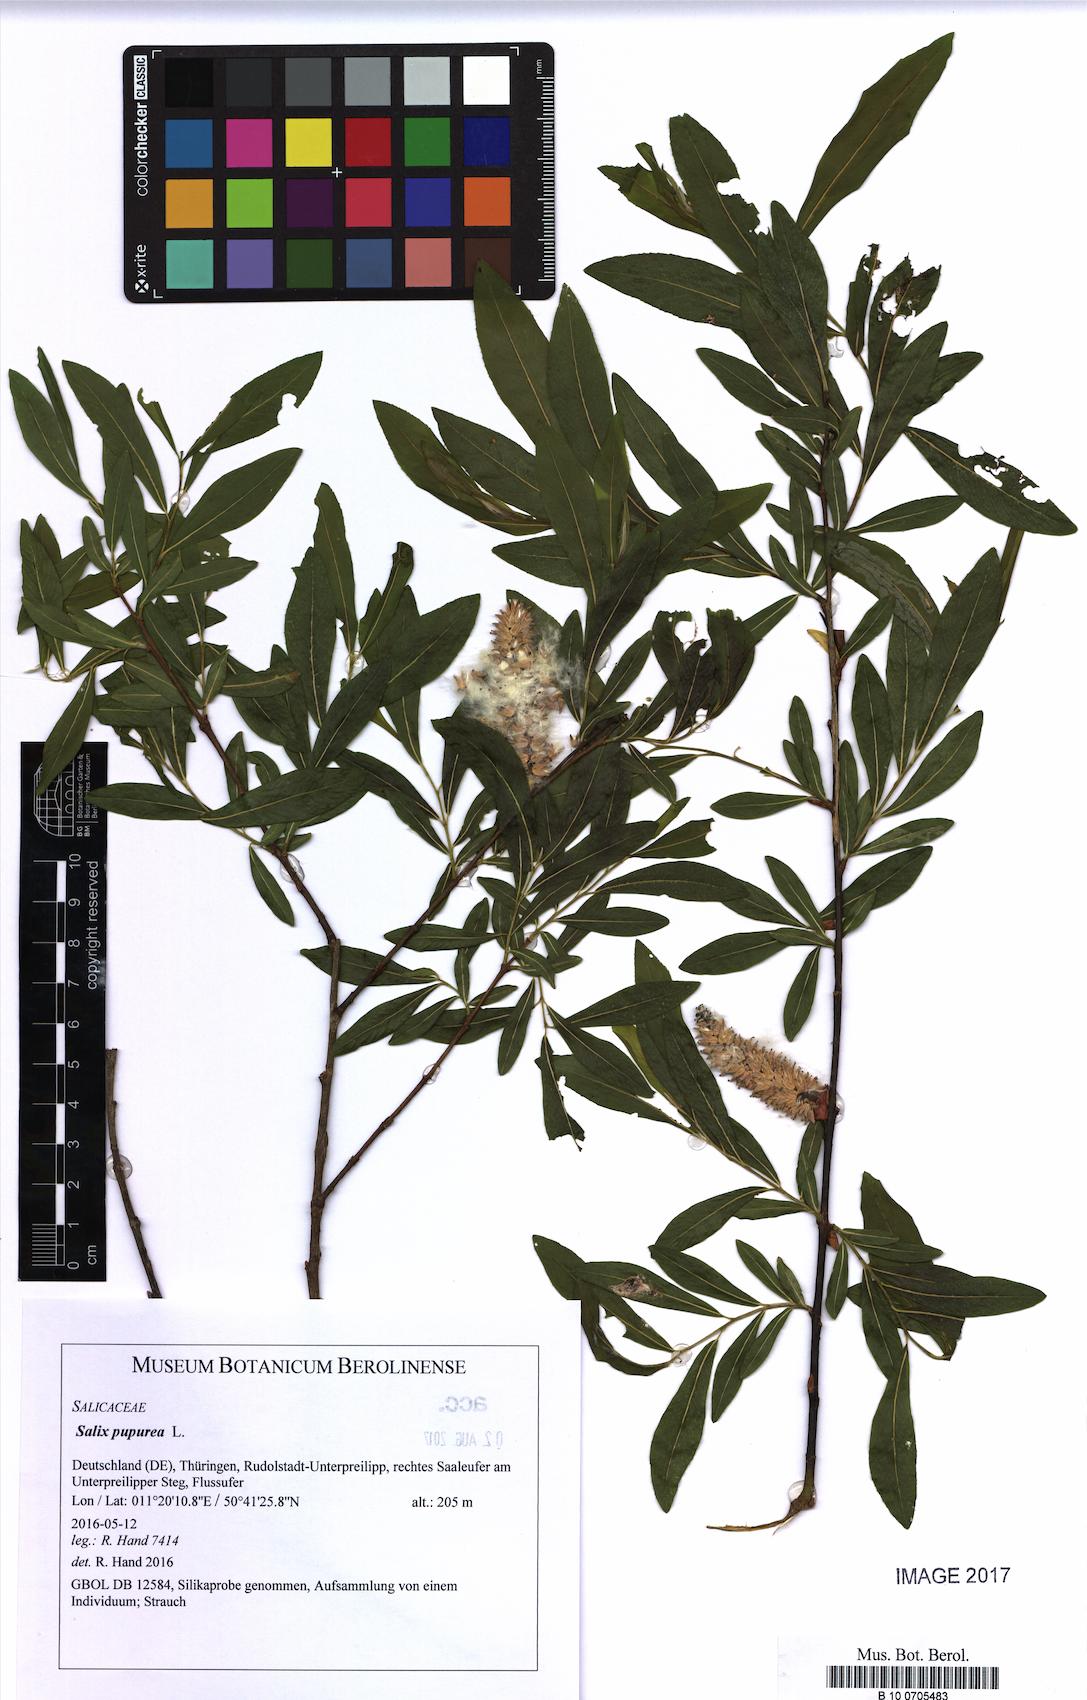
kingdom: Plantae
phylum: Tracheophyta
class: Magnoliopsida
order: Malpighiales
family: Salicaceae
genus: Salix
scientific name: Salix
